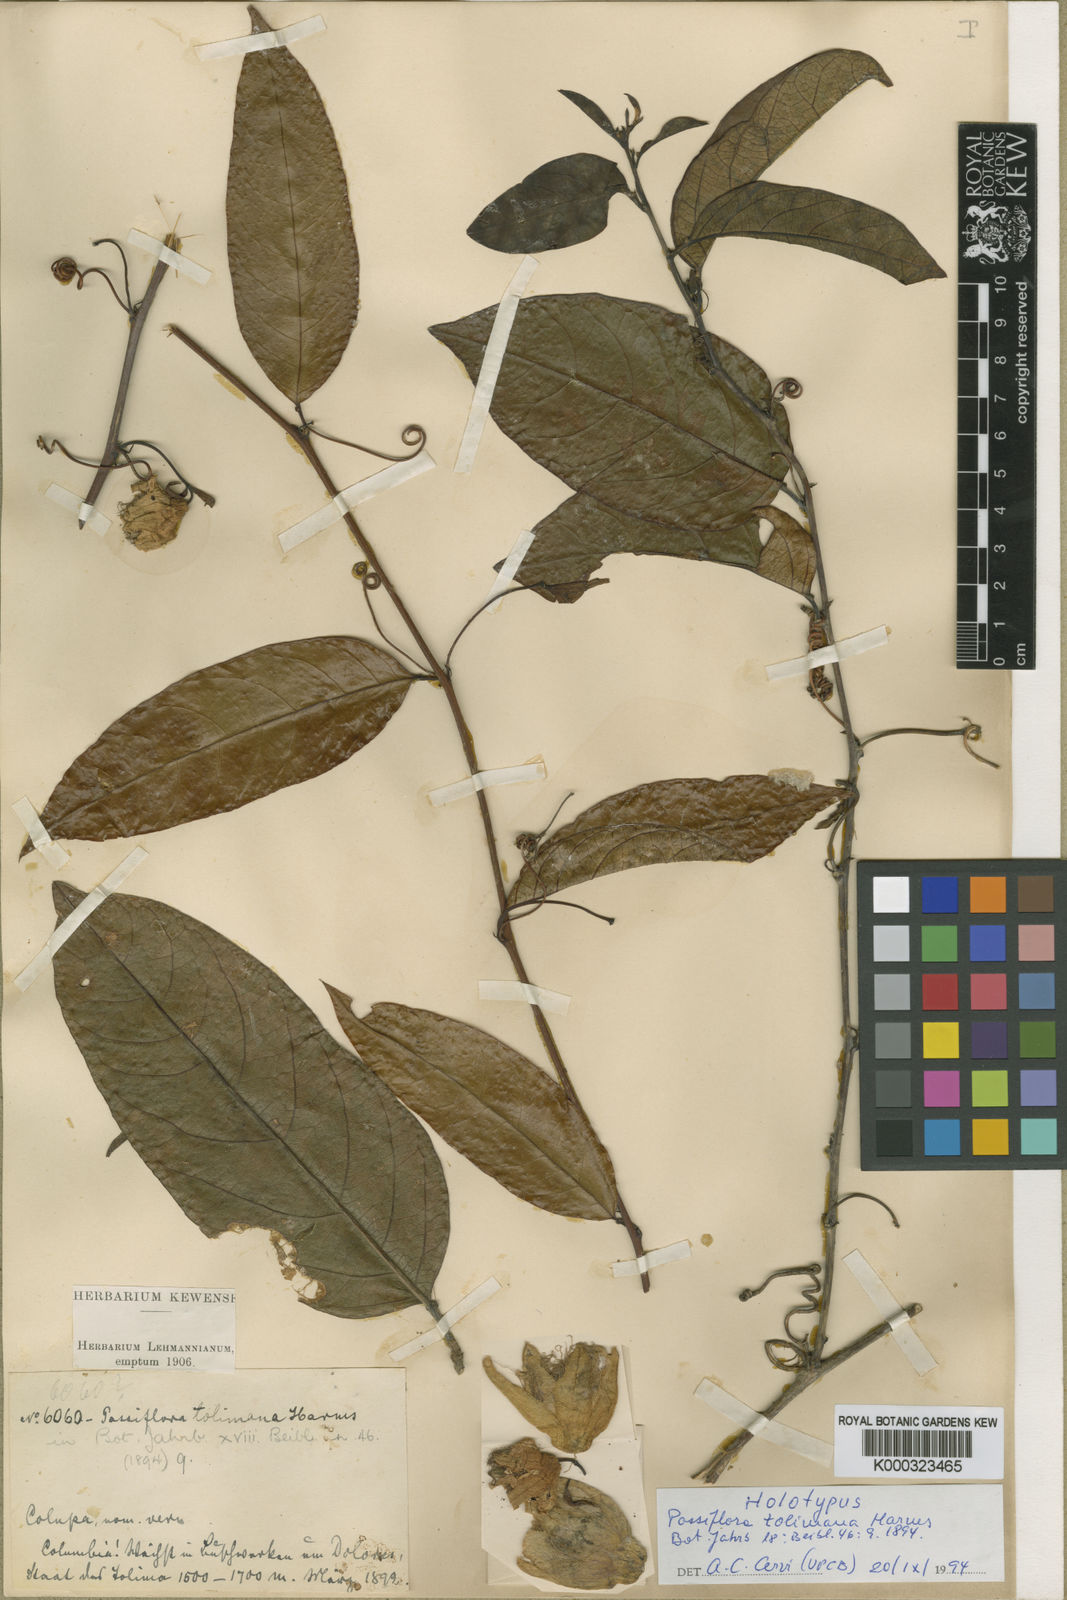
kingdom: Plantae
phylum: Tracheophyta
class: Magnoliopsida
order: Malpighiales
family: Passifloraceae
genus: Passiflora
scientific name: Passiflora acuminata
